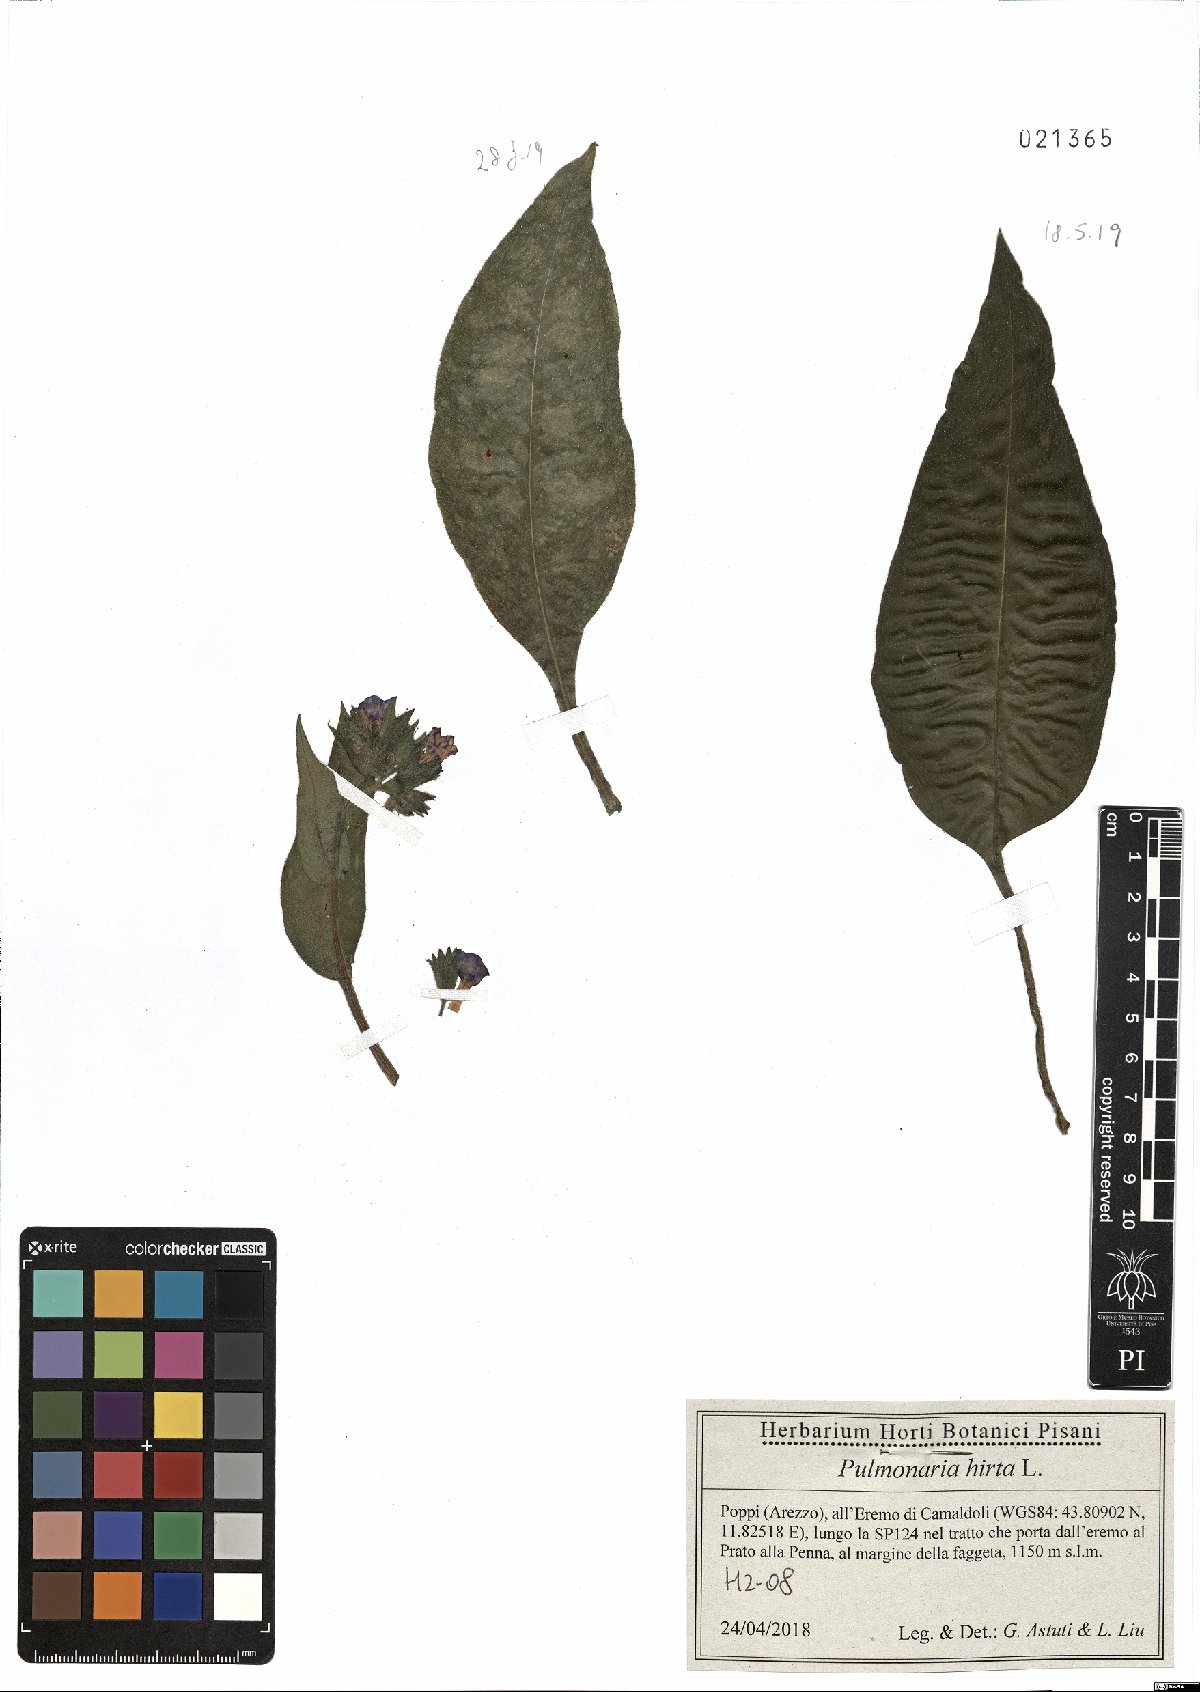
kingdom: Plantae
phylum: Tracheophyta
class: Magnoliopsida
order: Boraginales
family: Boraginaceae
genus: Pulmonaria
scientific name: Pulmonaria hirta
